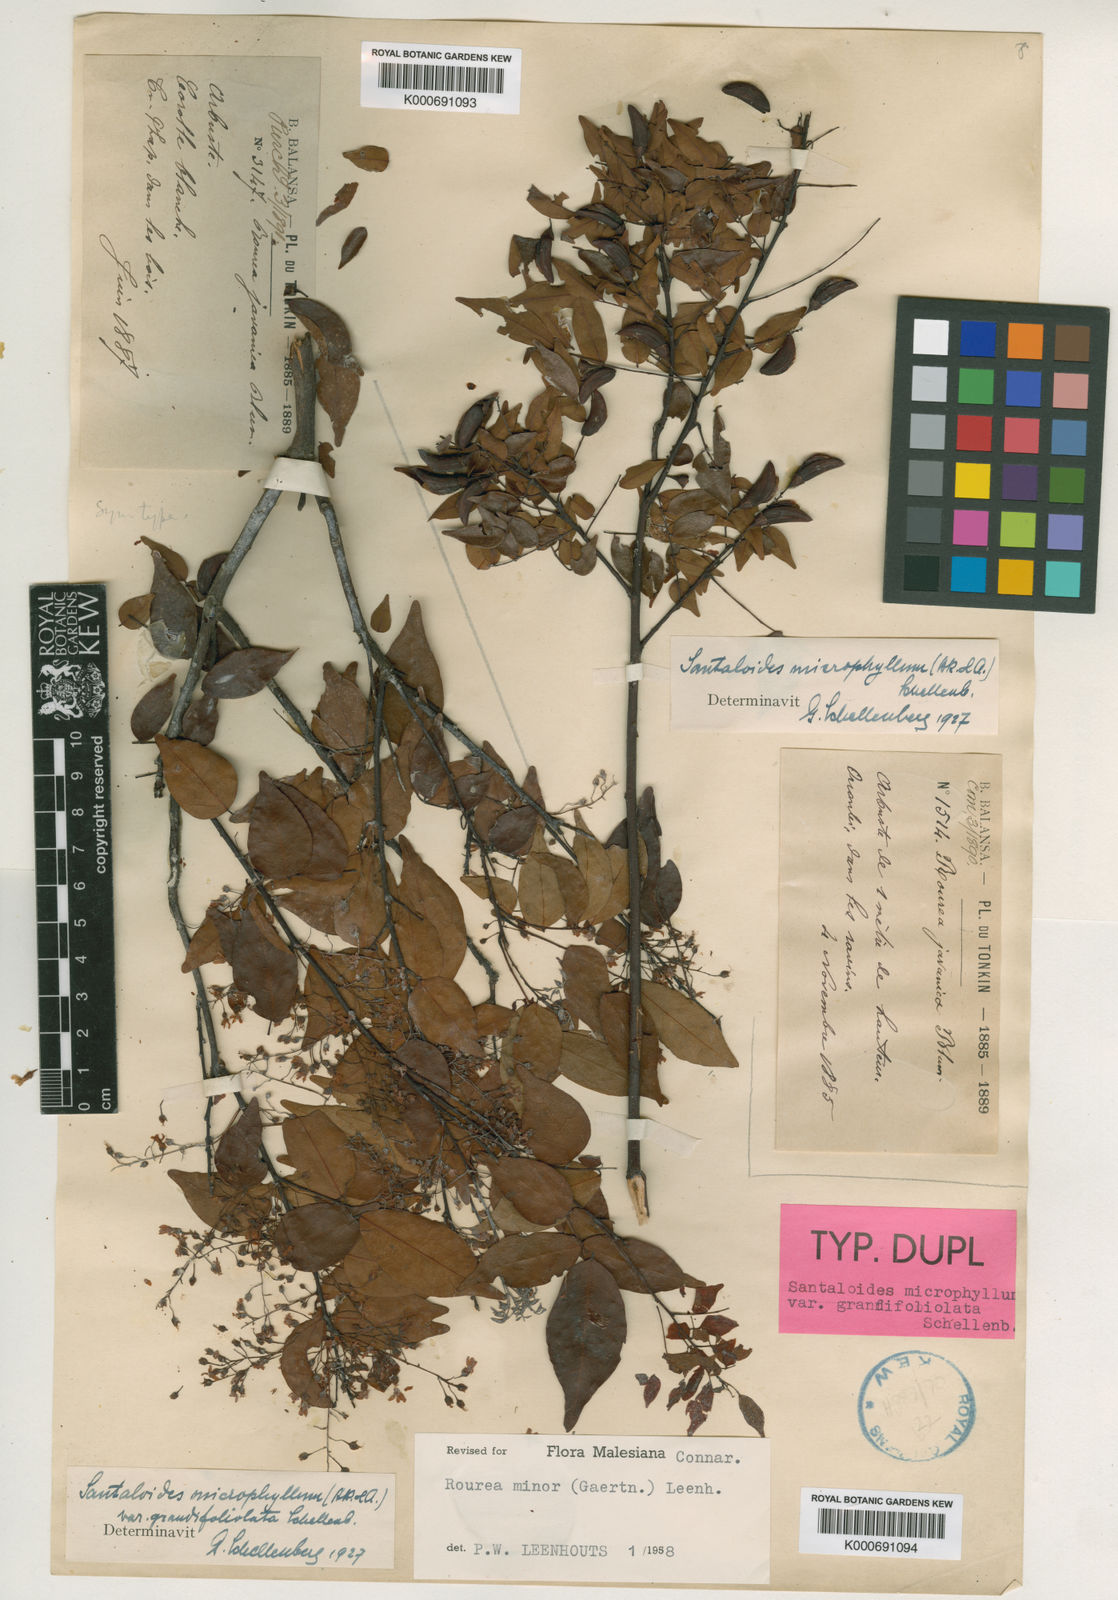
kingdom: Plantae
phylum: Tracheophyta
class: Magnoliopsida
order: Oxalidales
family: Connaraceae
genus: Rourea
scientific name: Rourea
